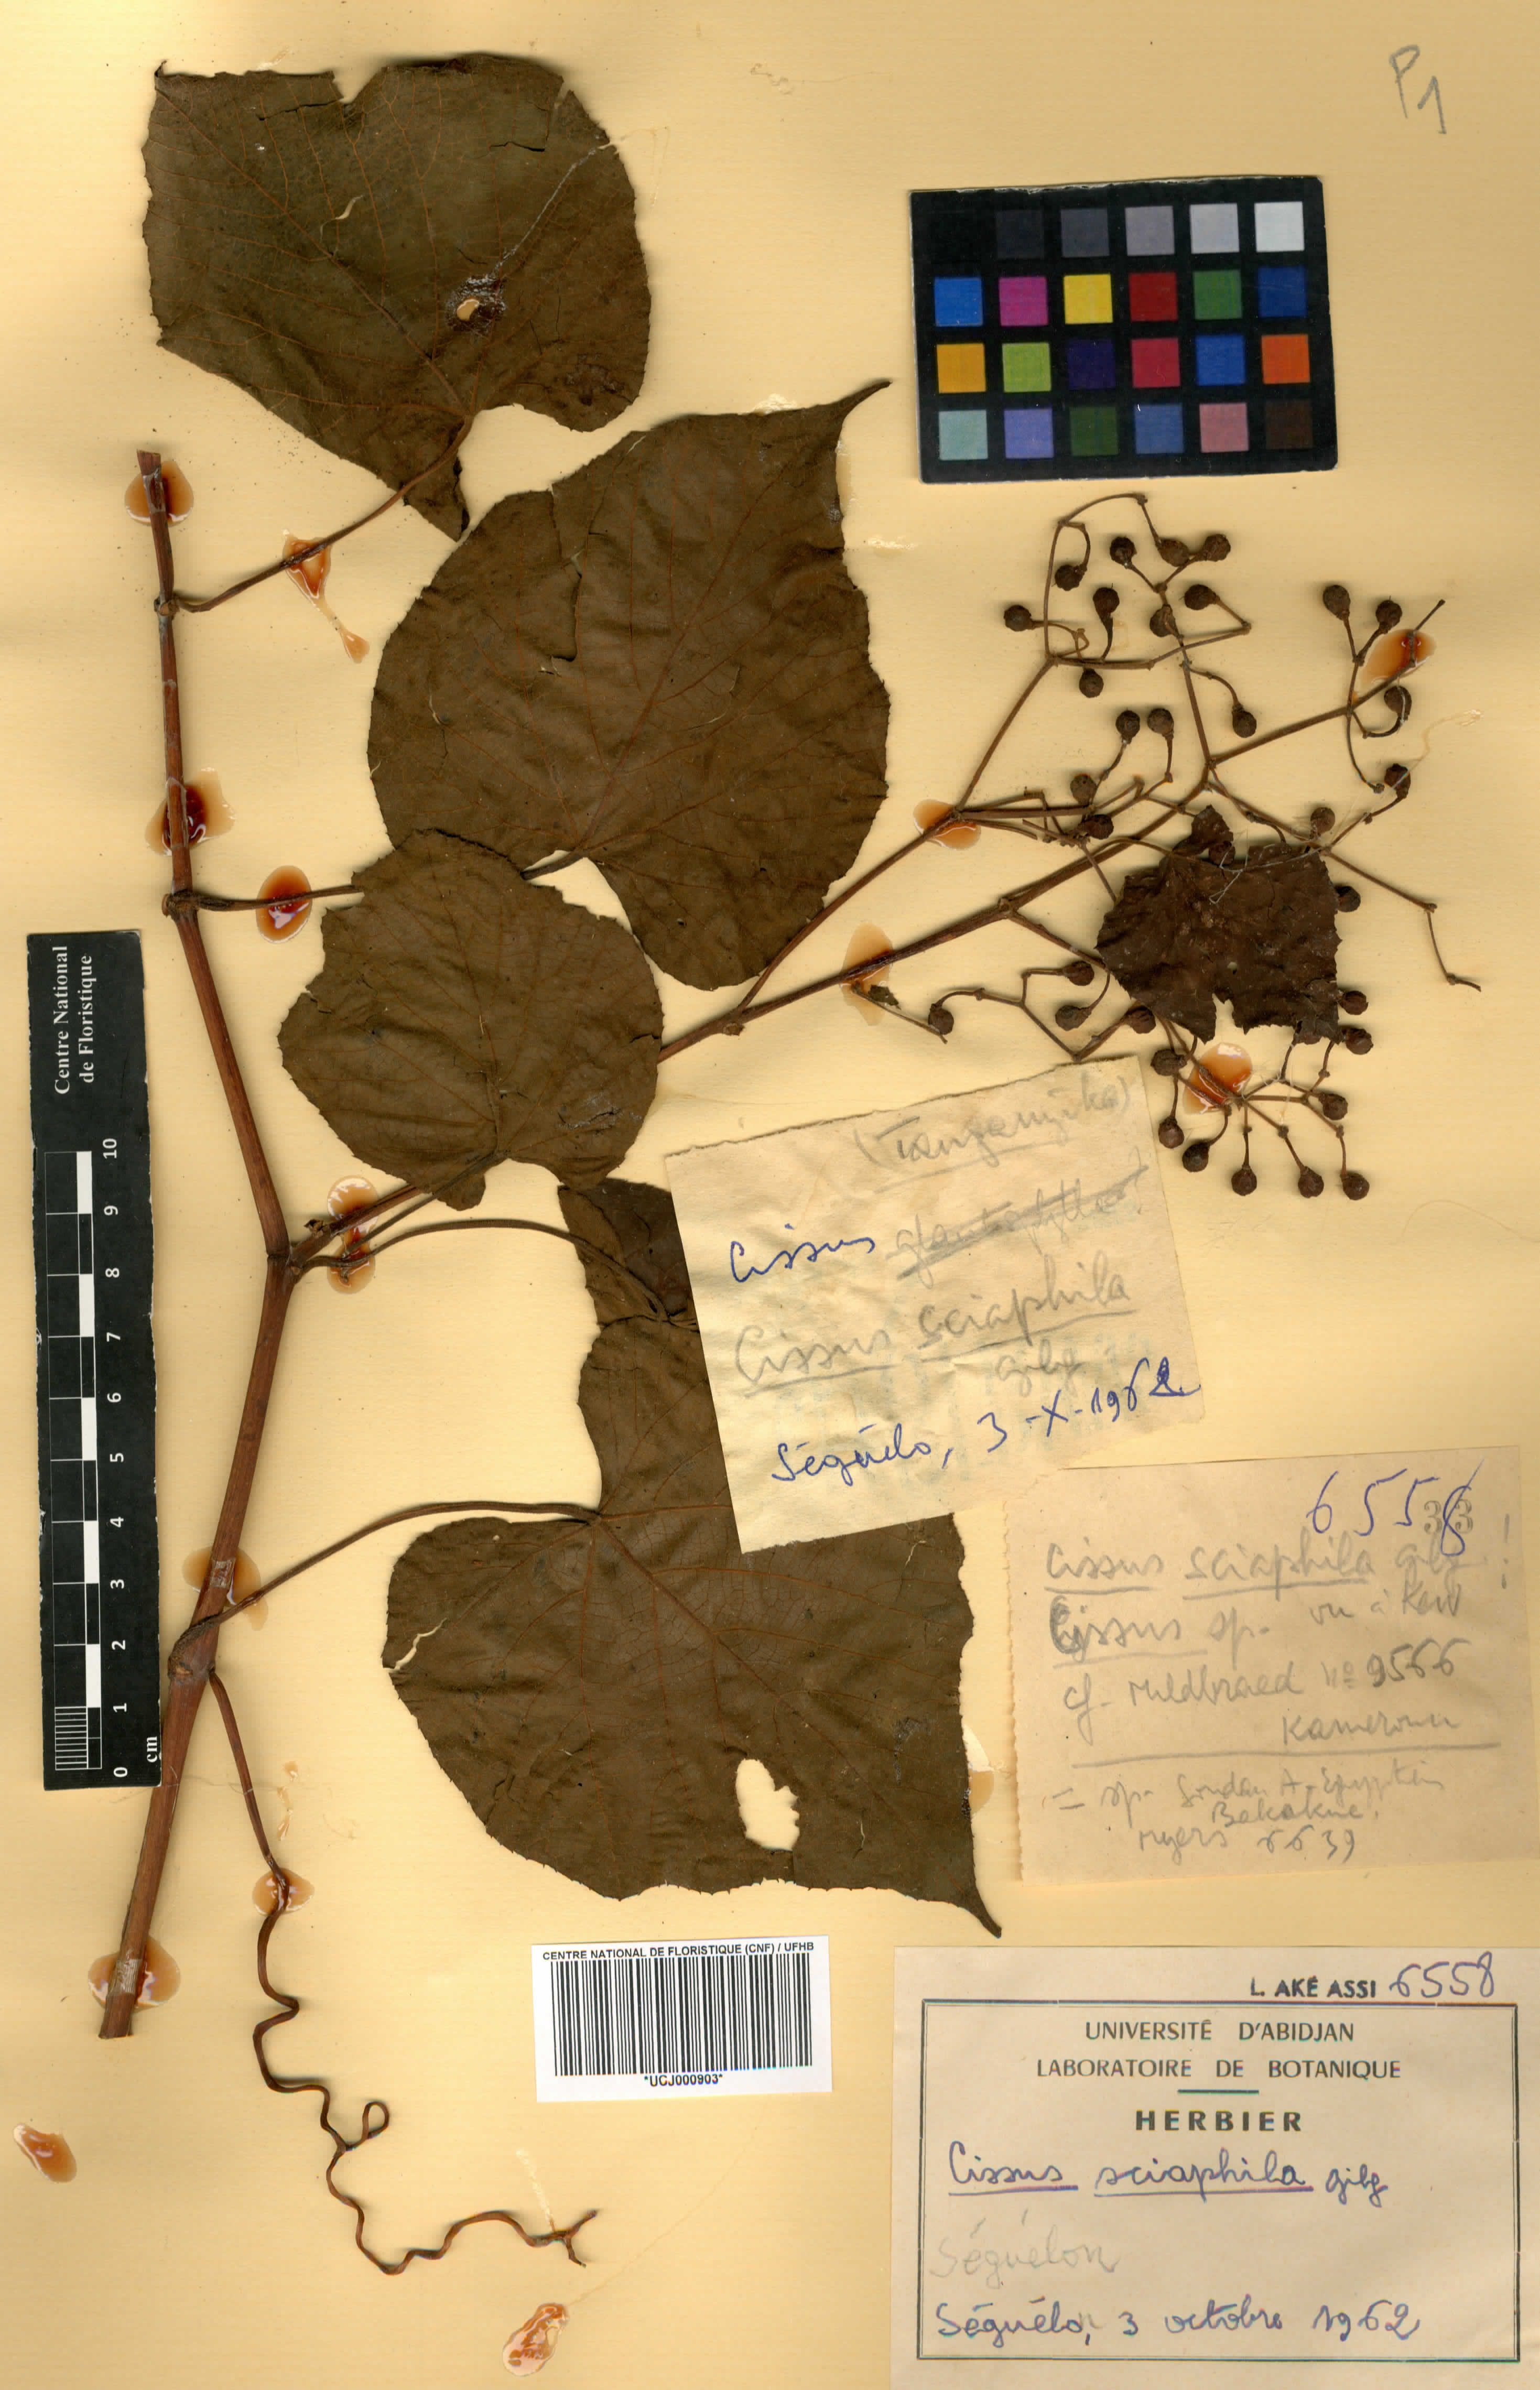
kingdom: Plantae
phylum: Tracheophyta
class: Magnoliopsida
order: Vitales
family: Vitaceae
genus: Cissus
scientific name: Cissus sciaphila
